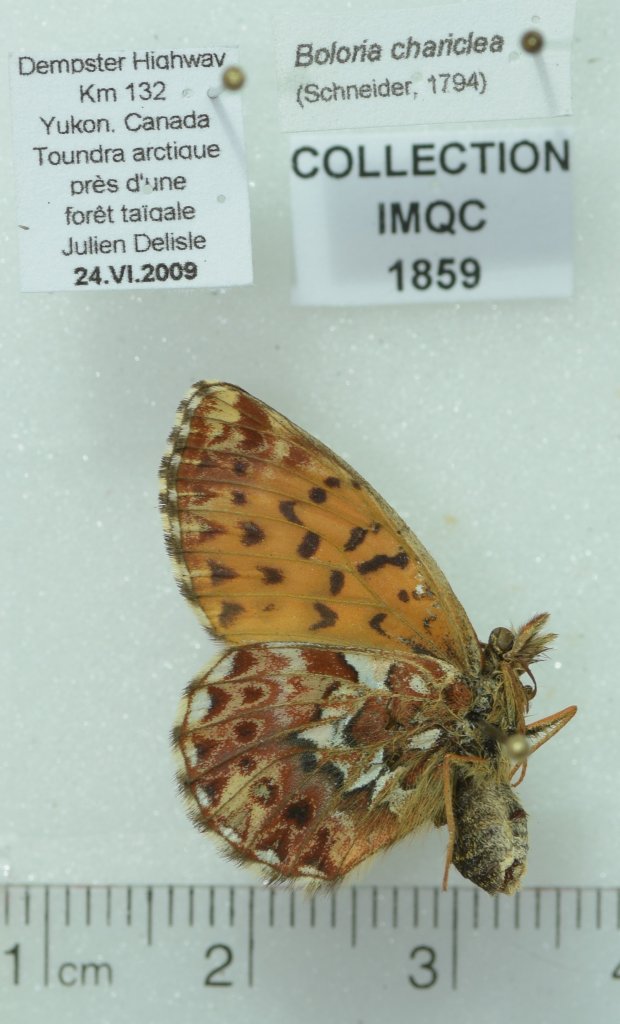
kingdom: Animalia
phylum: Arthropoda
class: Insecta
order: Lepidoptera
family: Nymphalidae
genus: Boloria
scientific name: Boloria chariclea
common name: Arctic Fritillary
